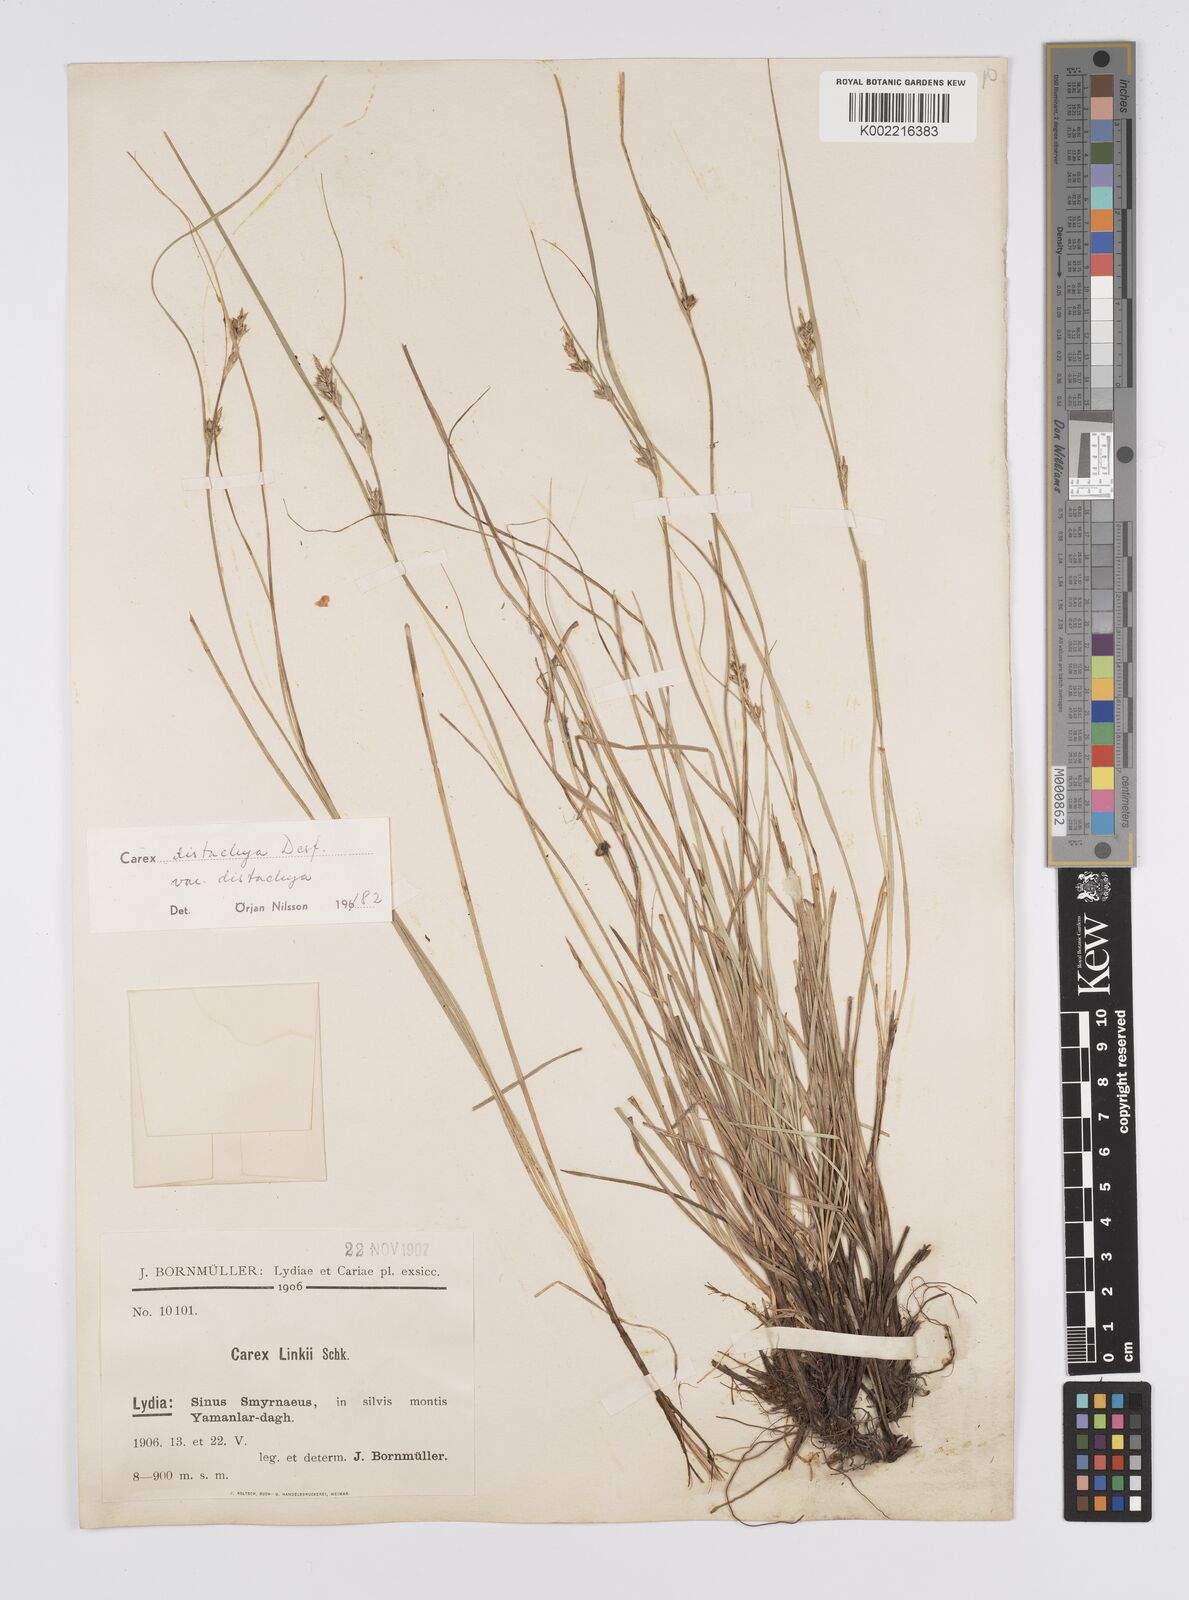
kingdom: Plantae
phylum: Tracheophyta
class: Liliopsida
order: Poales
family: Cyperaceae
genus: Carex
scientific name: Carex distachya
